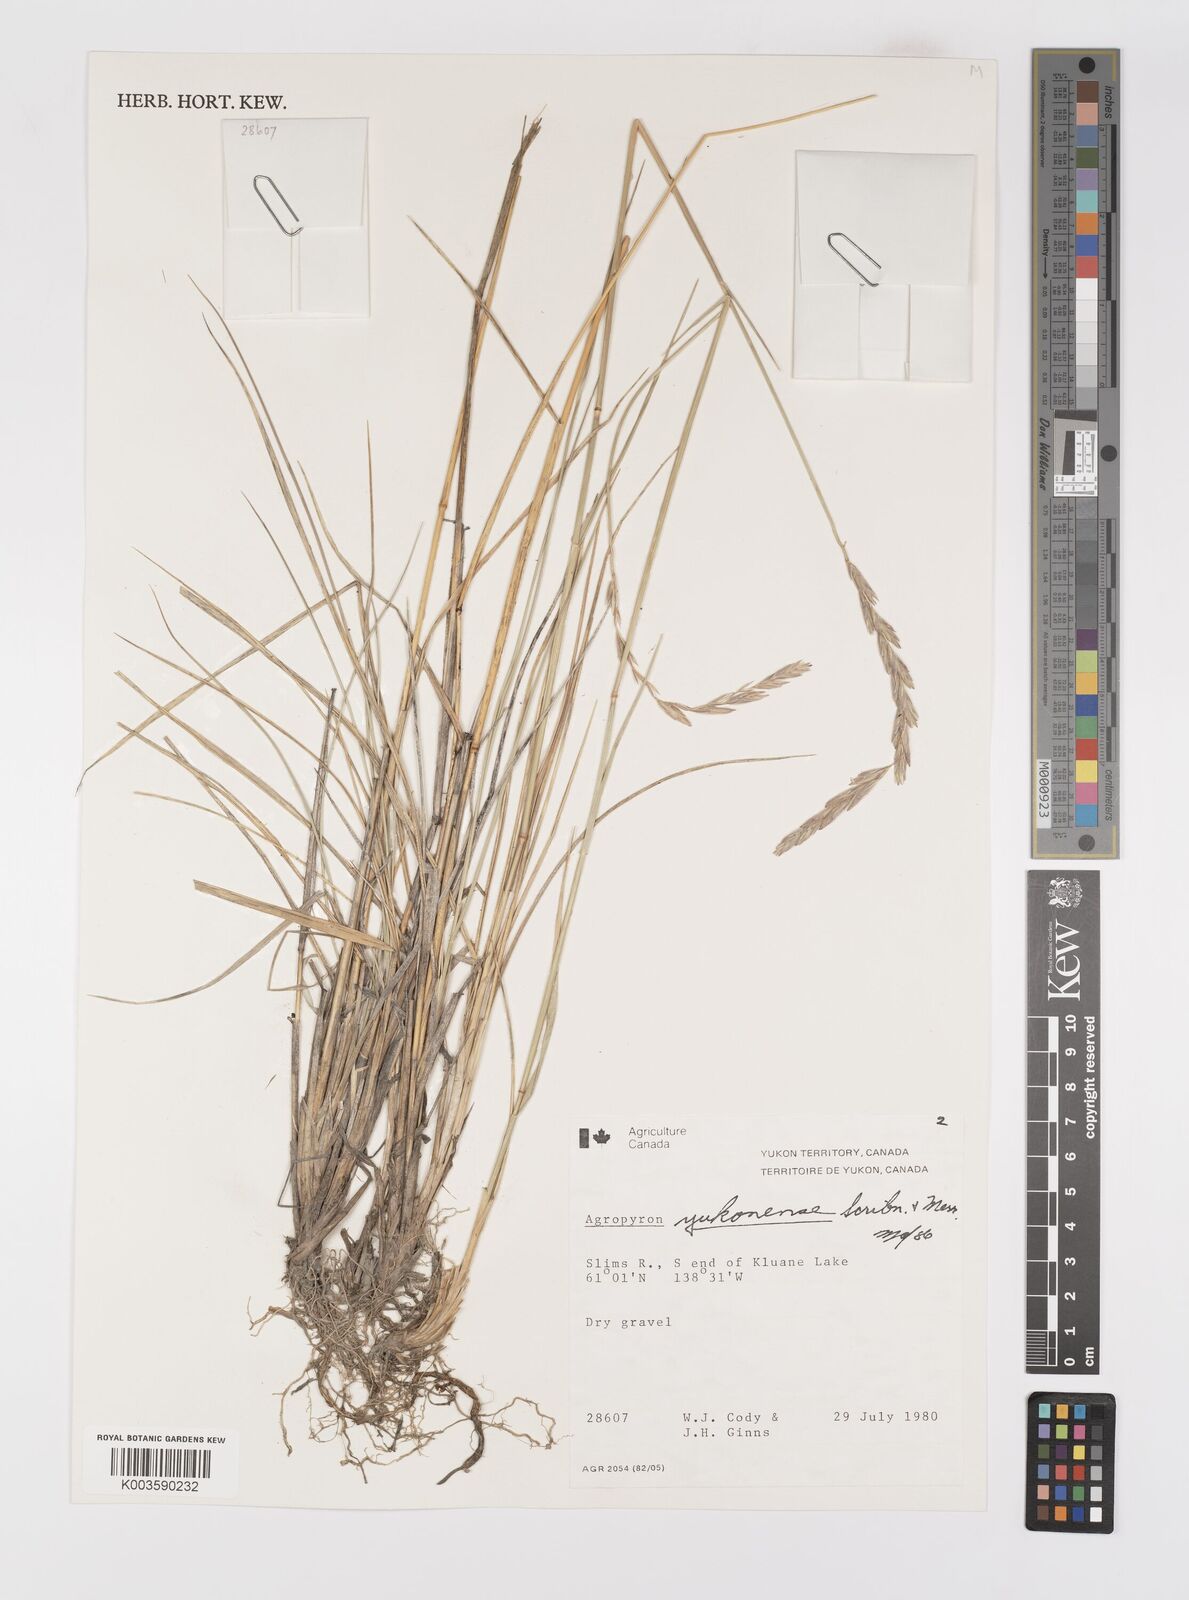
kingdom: Plantae
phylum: Tracheophyta
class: Liliopsida
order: Poales
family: Poaceae
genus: Elymus
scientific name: Elymus alaskanus
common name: Alaska wheatgrass
